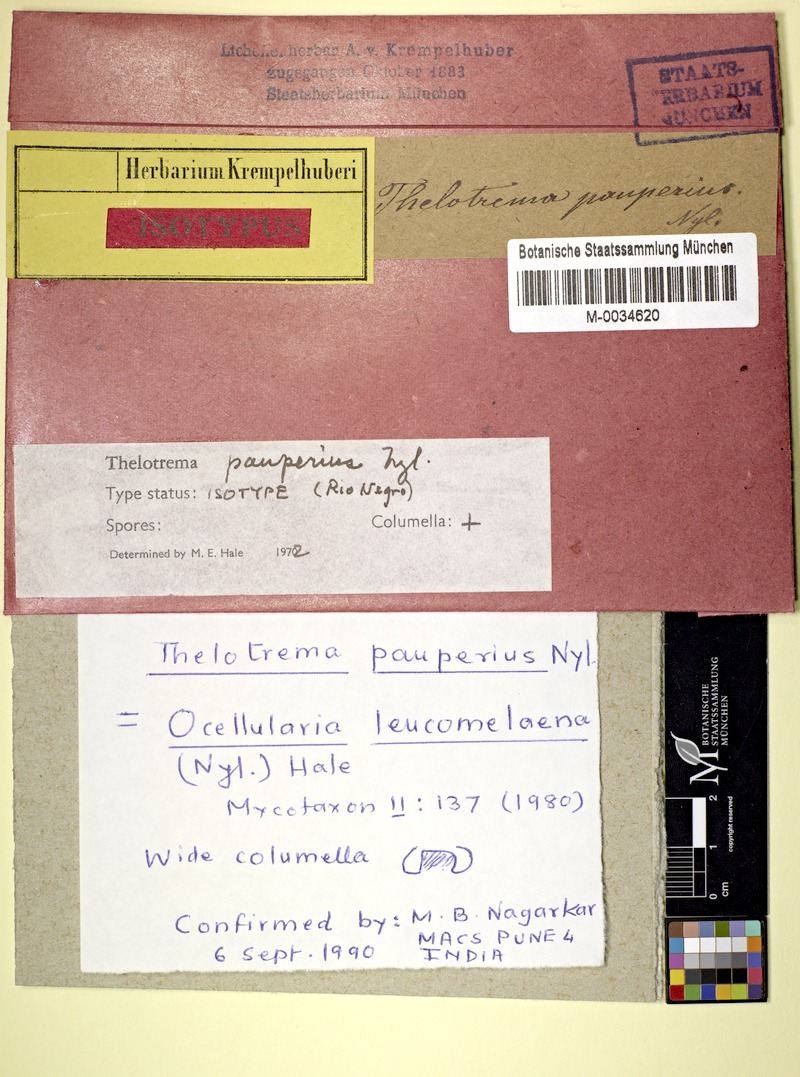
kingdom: Fungi
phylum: Ascomycota
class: Lecanoromycetes
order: Ostropales
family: Graphidaceae
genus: Clandestinotrema
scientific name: Clandestinotrema pauperius
